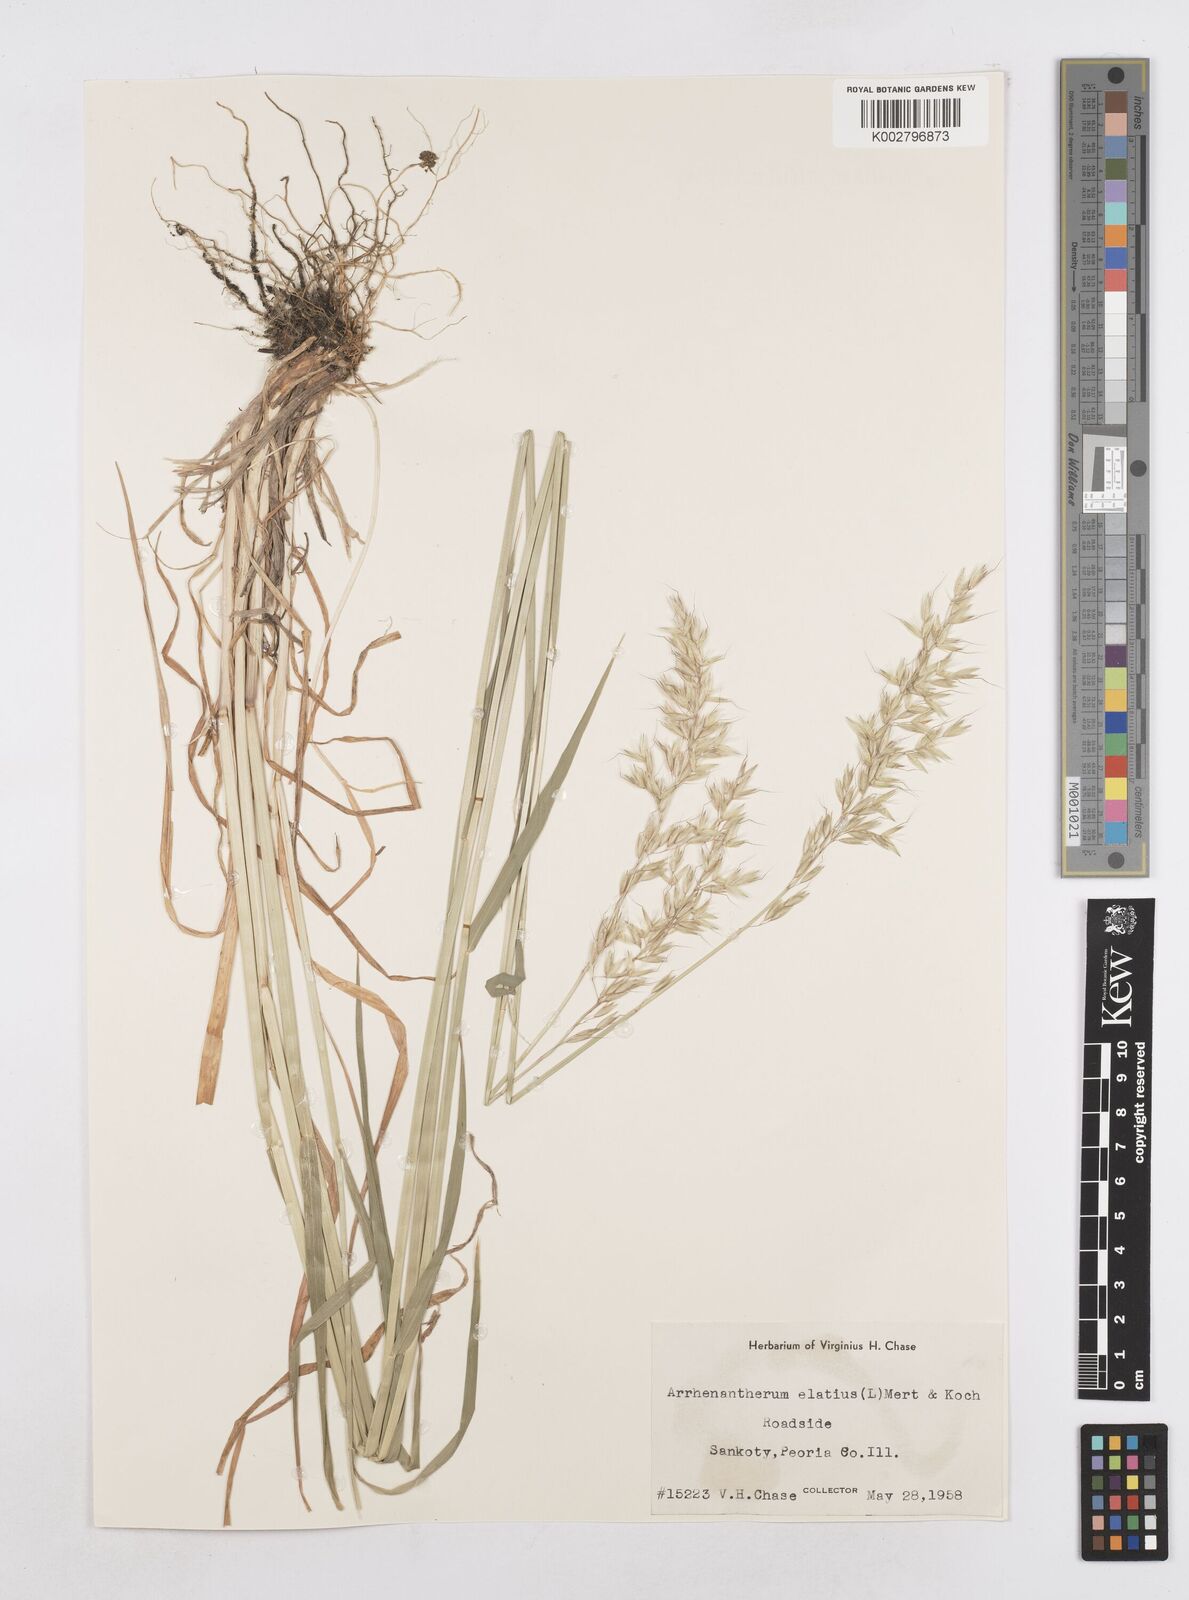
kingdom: Plantae
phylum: Tracheophyta
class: Liliopsida
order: Poales
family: Poaceae
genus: Arrhenatherum
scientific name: Arrhenatherum elatius
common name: Tall oatgrass
